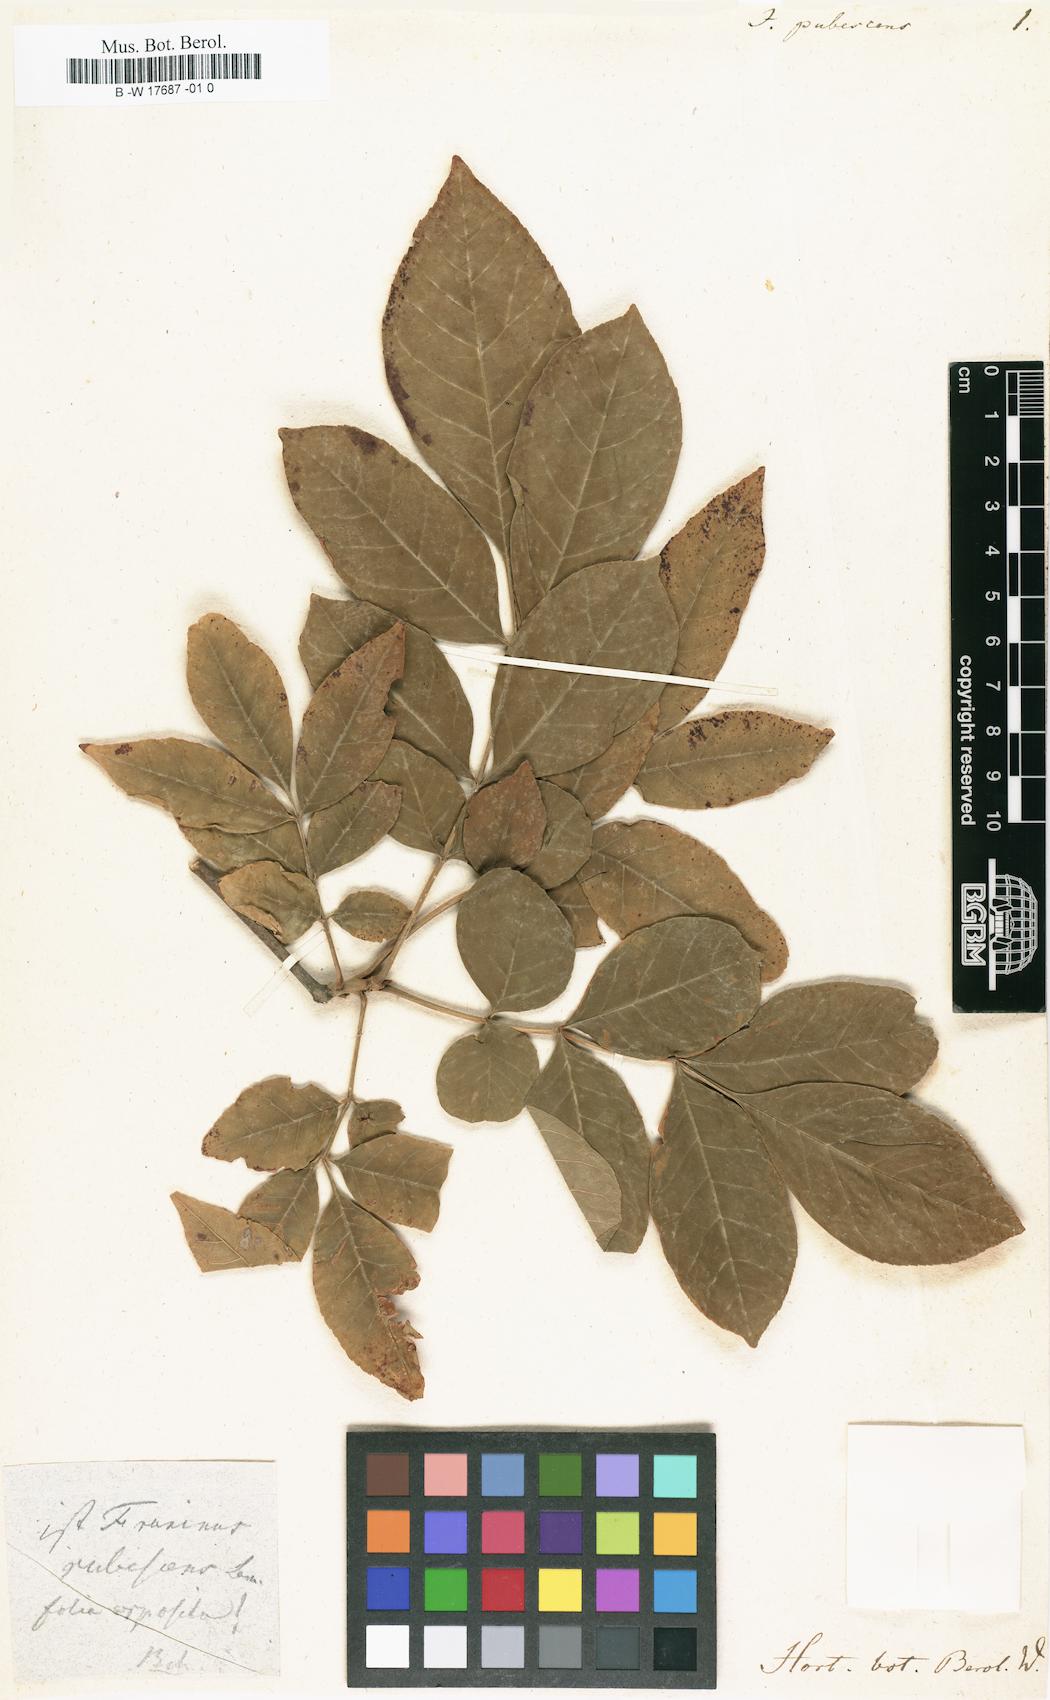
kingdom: Plantae
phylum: Tracheophyta
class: Magnoliopsida
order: Fagales
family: Juglandaceae
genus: Carya
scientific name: Carya laciniosa
